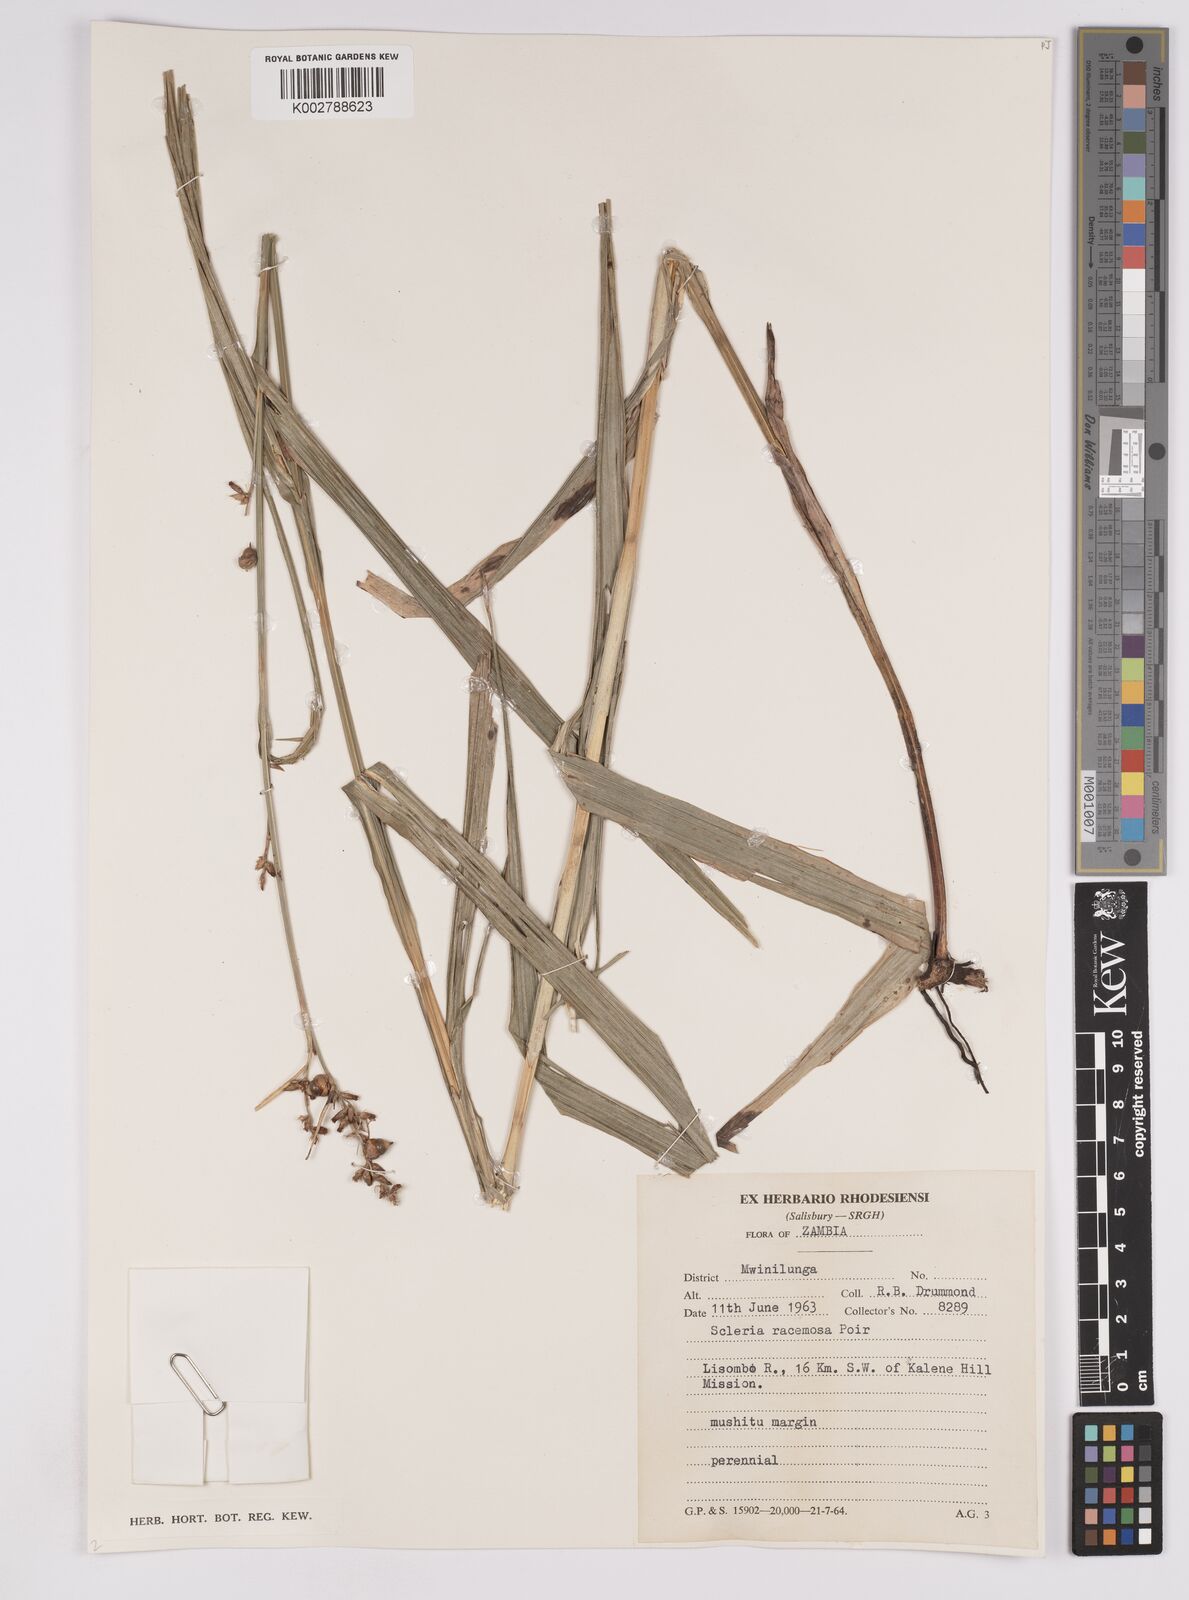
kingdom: Plantae
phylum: Tracheophyta
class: Liliopsida
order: Poales
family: Cyperaceae
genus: Scleria
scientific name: Scleria racemosa
